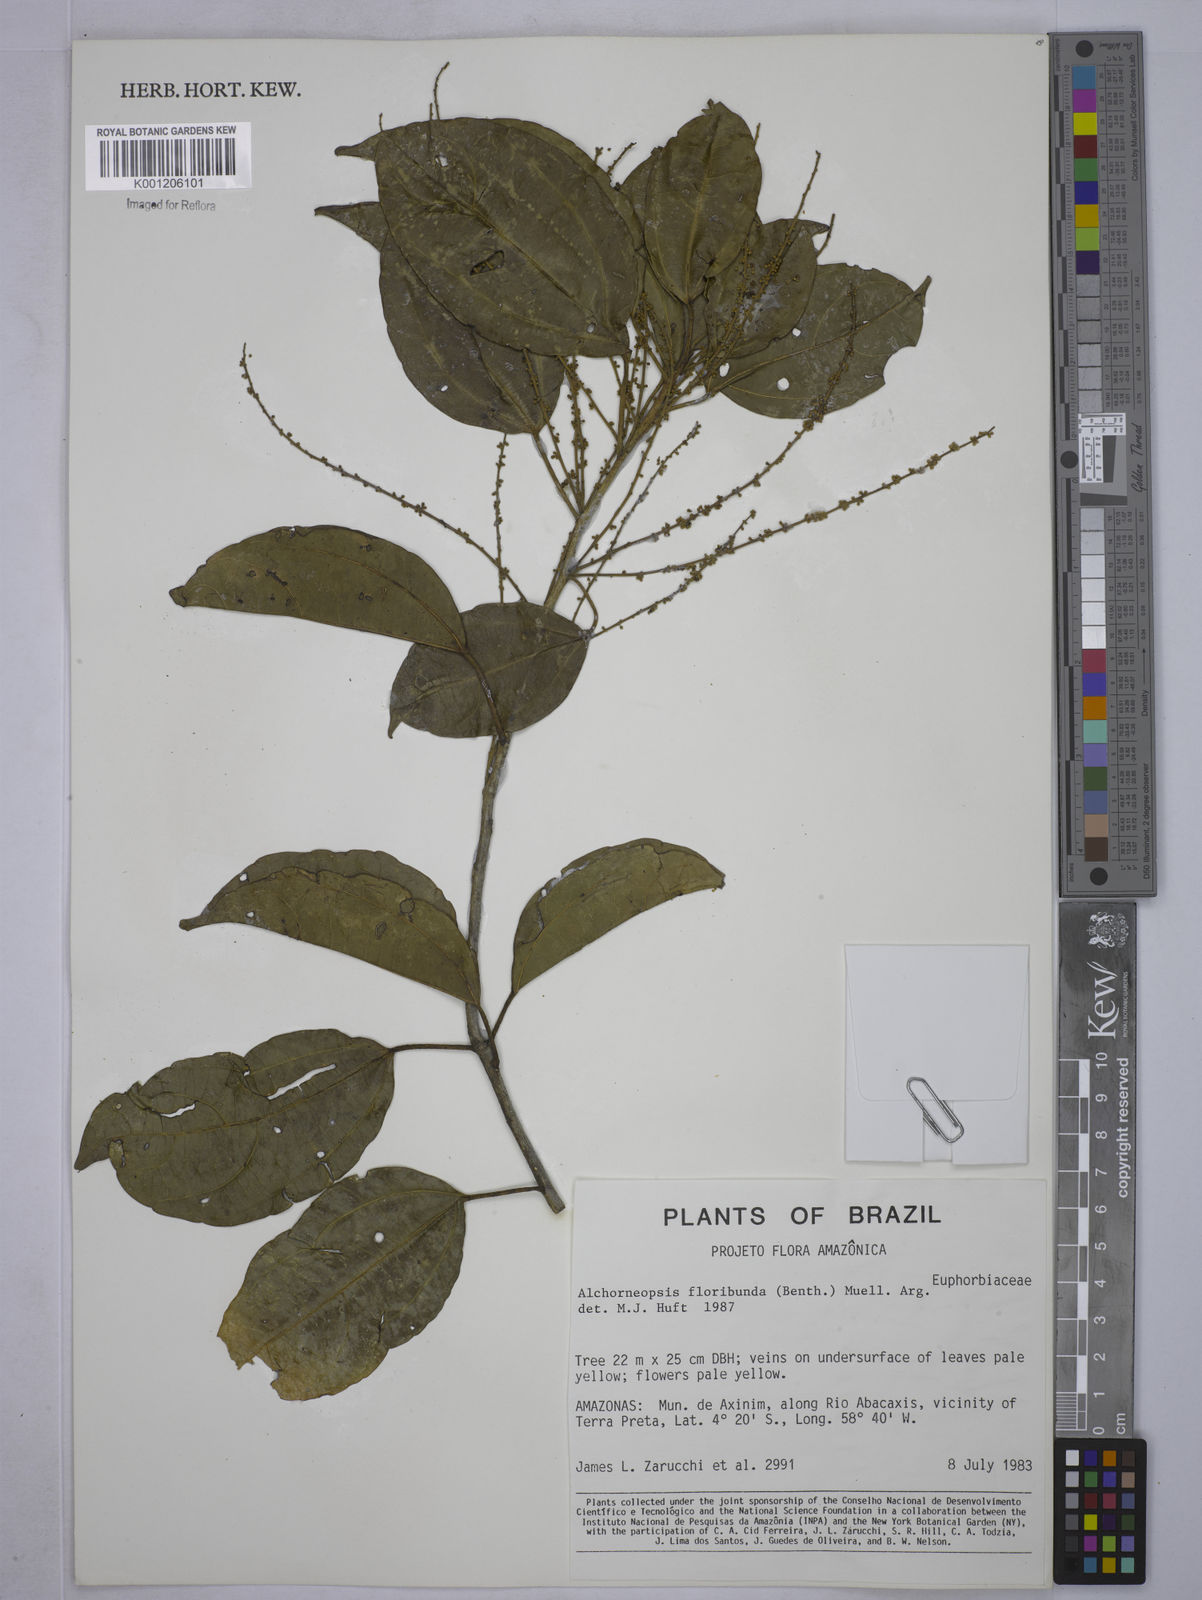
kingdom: Plantae
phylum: Tracheophyta
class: Magnoliopsida
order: Malpighiales
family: Euphorbiaceae
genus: Alchorneopsis
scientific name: Alchorneopsis
